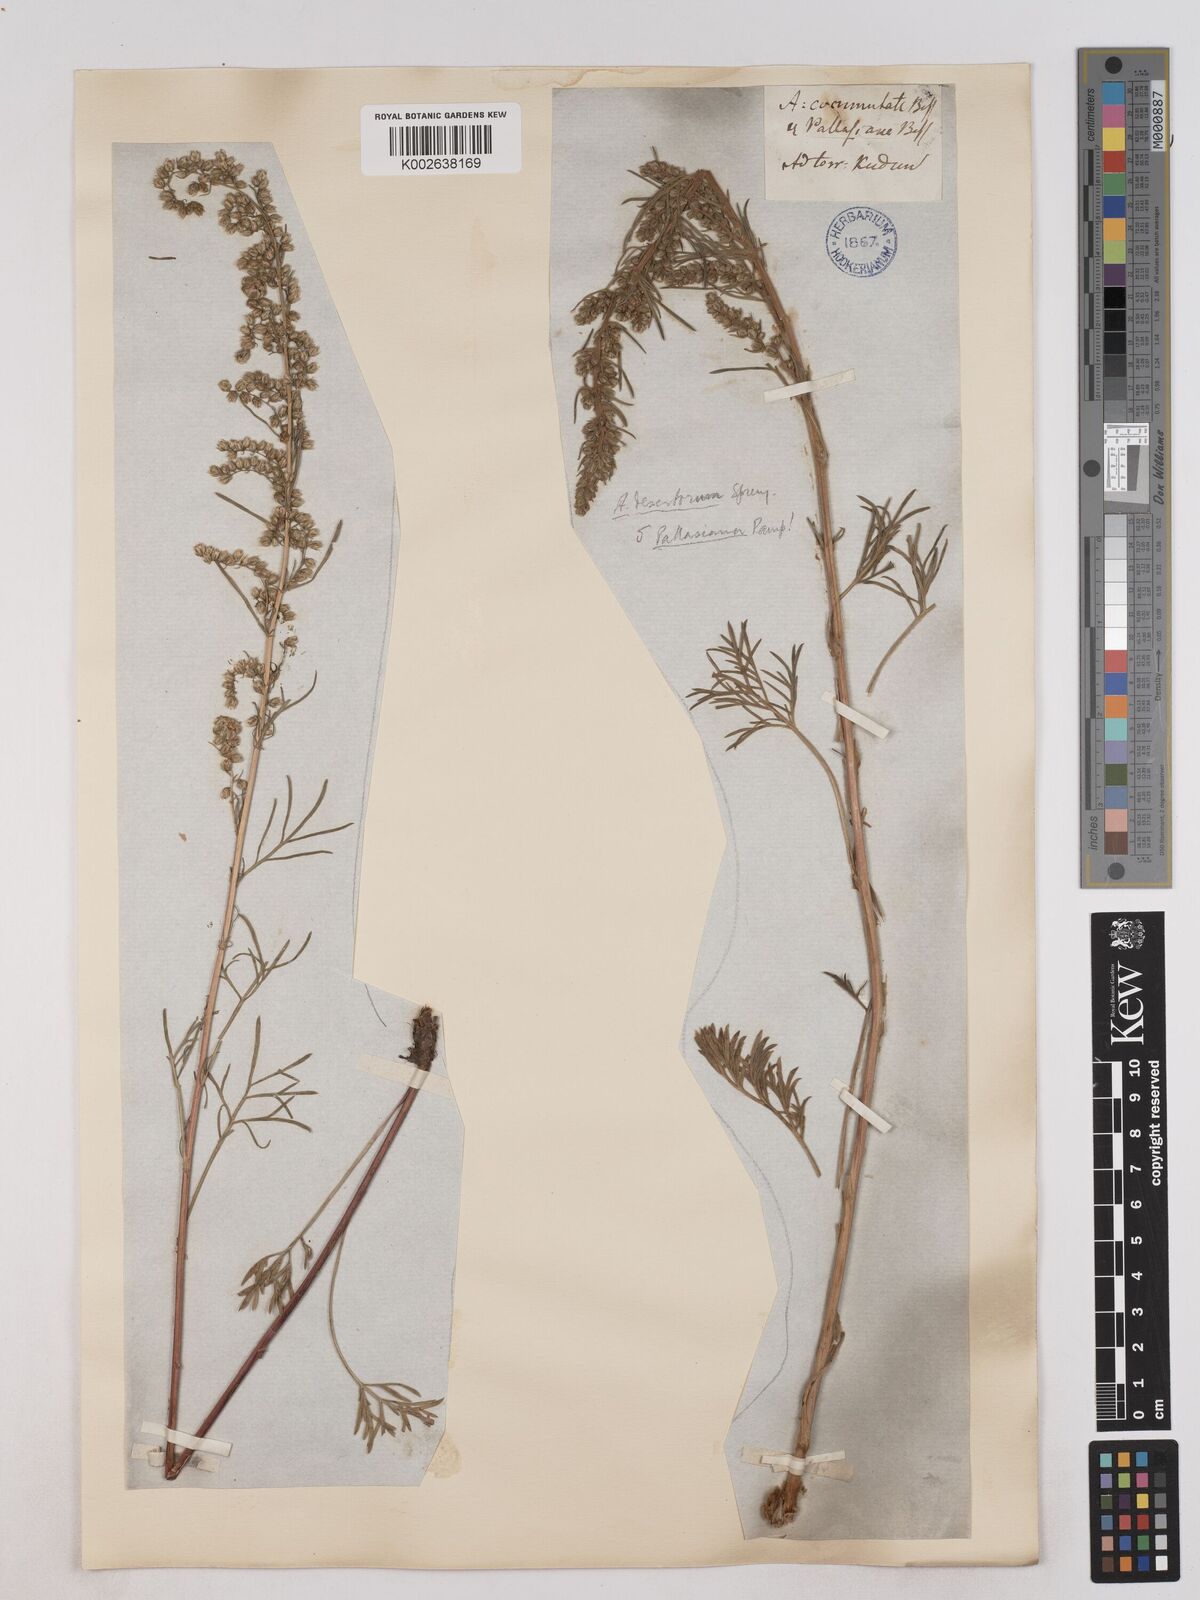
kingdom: Plantae
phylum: Tracheophyta
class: Magnoliopsida
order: Asterales
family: Asteraceae
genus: Artemisia
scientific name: Artemisia pubescens
